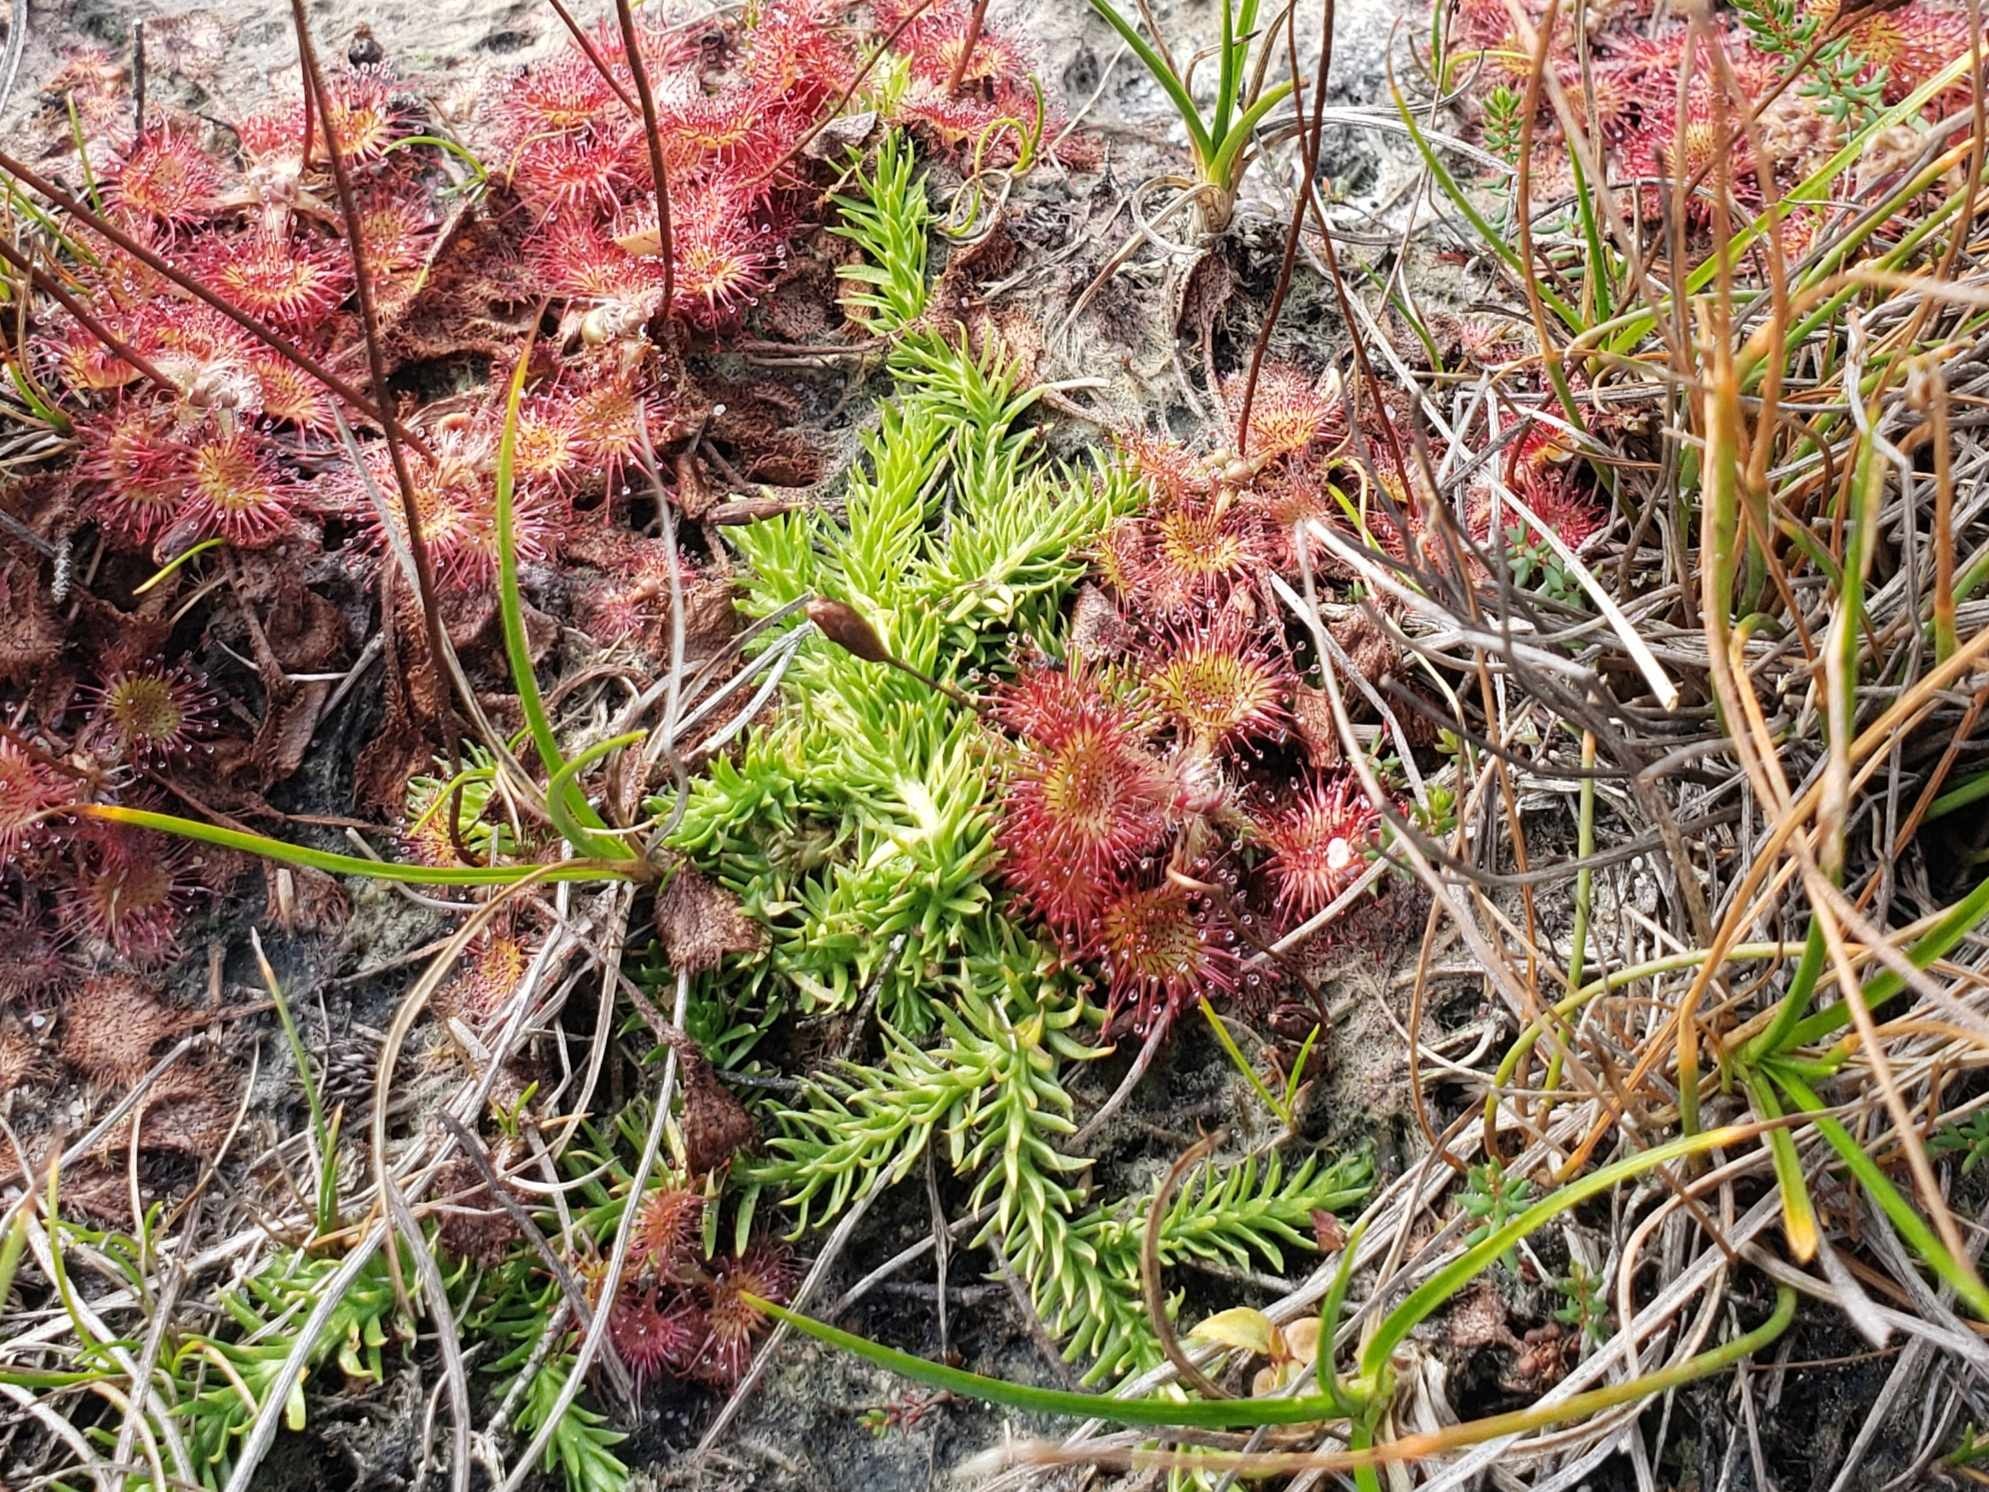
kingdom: Plantae
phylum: Tracheophyta
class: Lycopodiopsida
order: Lycopodiales
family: Lycopodiaceae
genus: Lycopodiella
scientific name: Lycopodiella inundata
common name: Liden ulvefod
